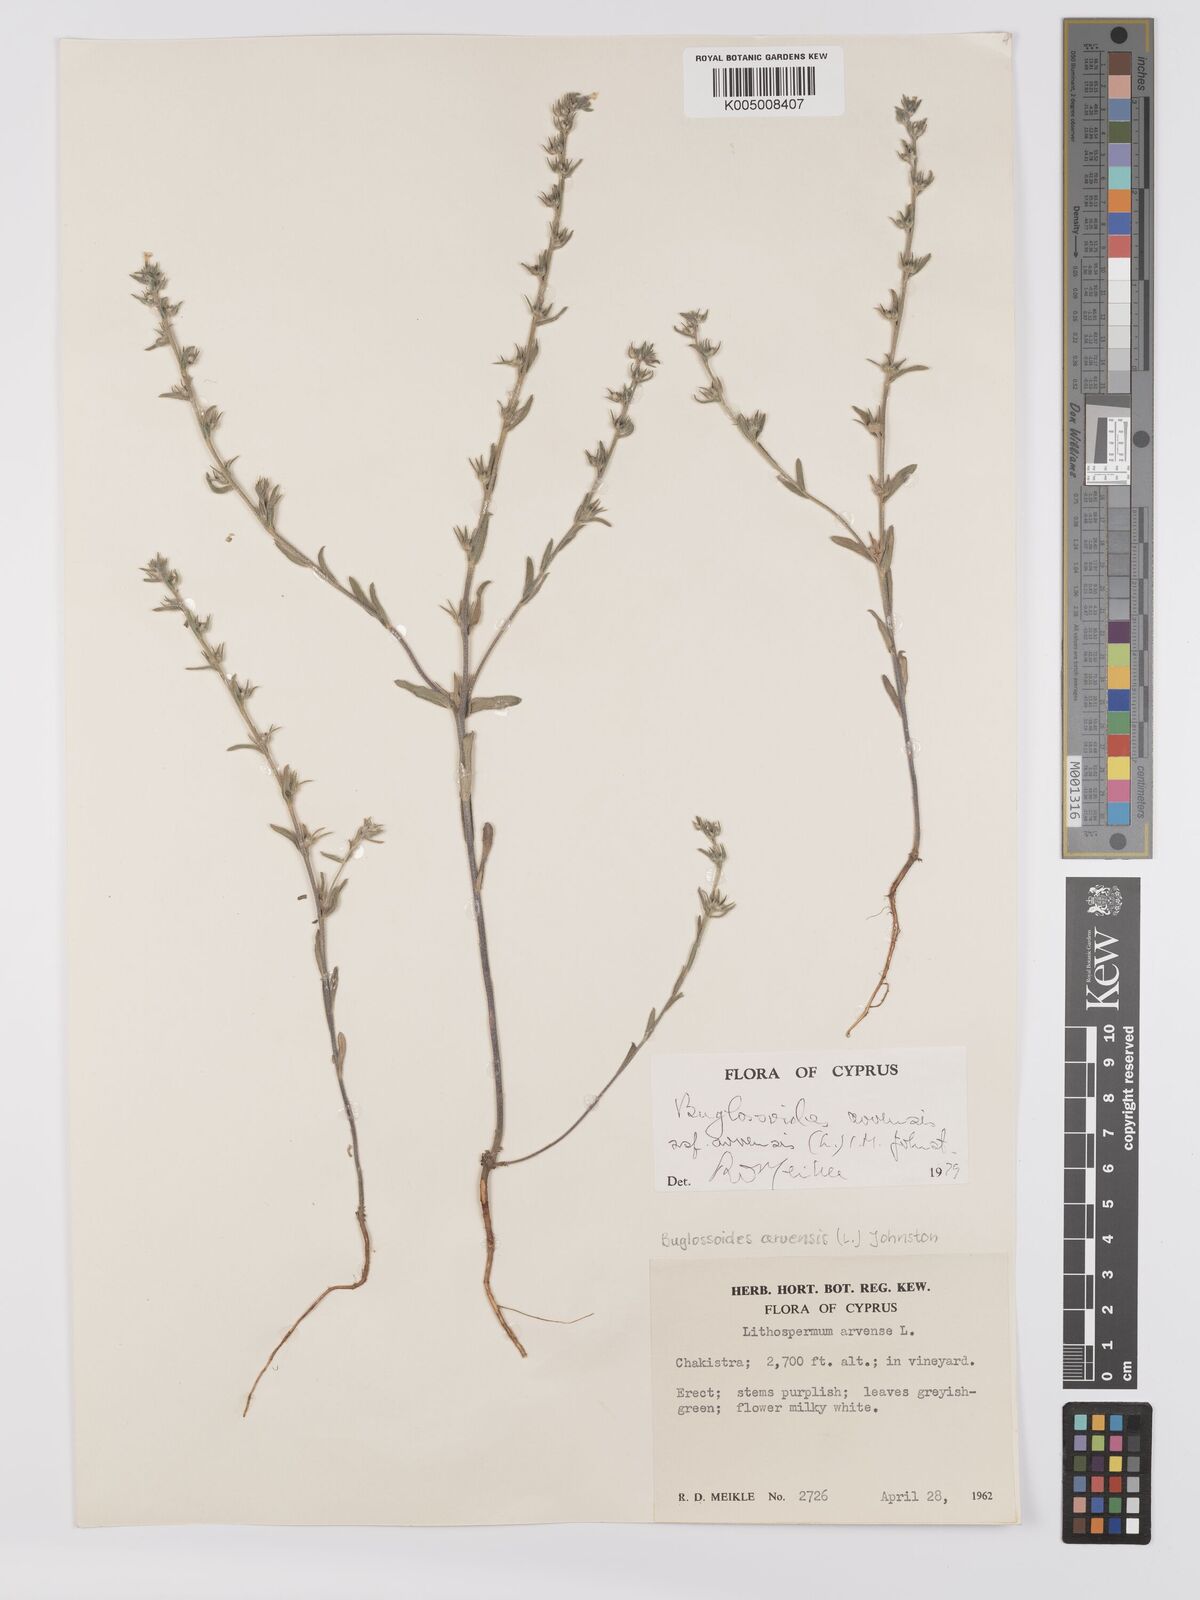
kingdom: Plantae
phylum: Tracheophyta
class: Magnoliopsida
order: Boraginales
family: Boraginaceae
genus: Buglossoides
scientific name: Buglossoides arvensis
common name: Corn gromwell
